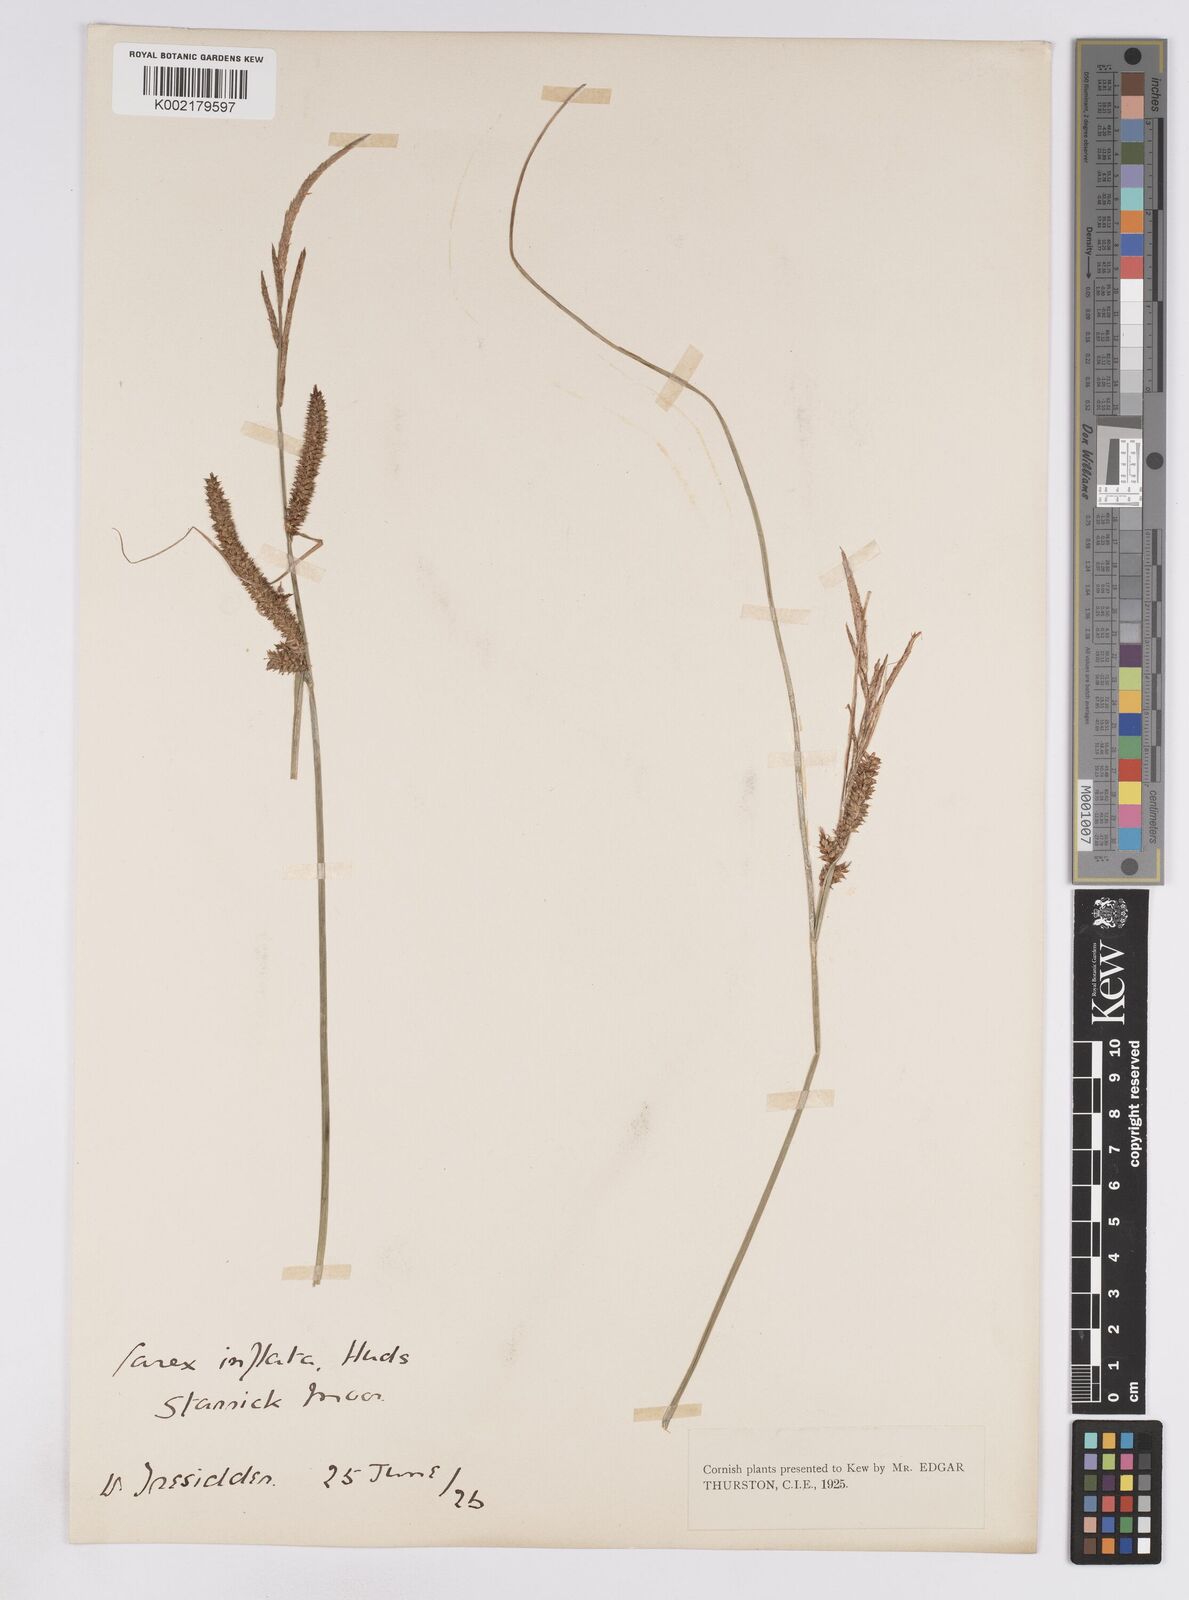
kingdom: Plantae
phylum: Tracheophyta
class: Liliopsida
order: Poales
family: Cyperaceae
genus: Carex
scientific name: Carex rostrata
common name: Bottle sedge
